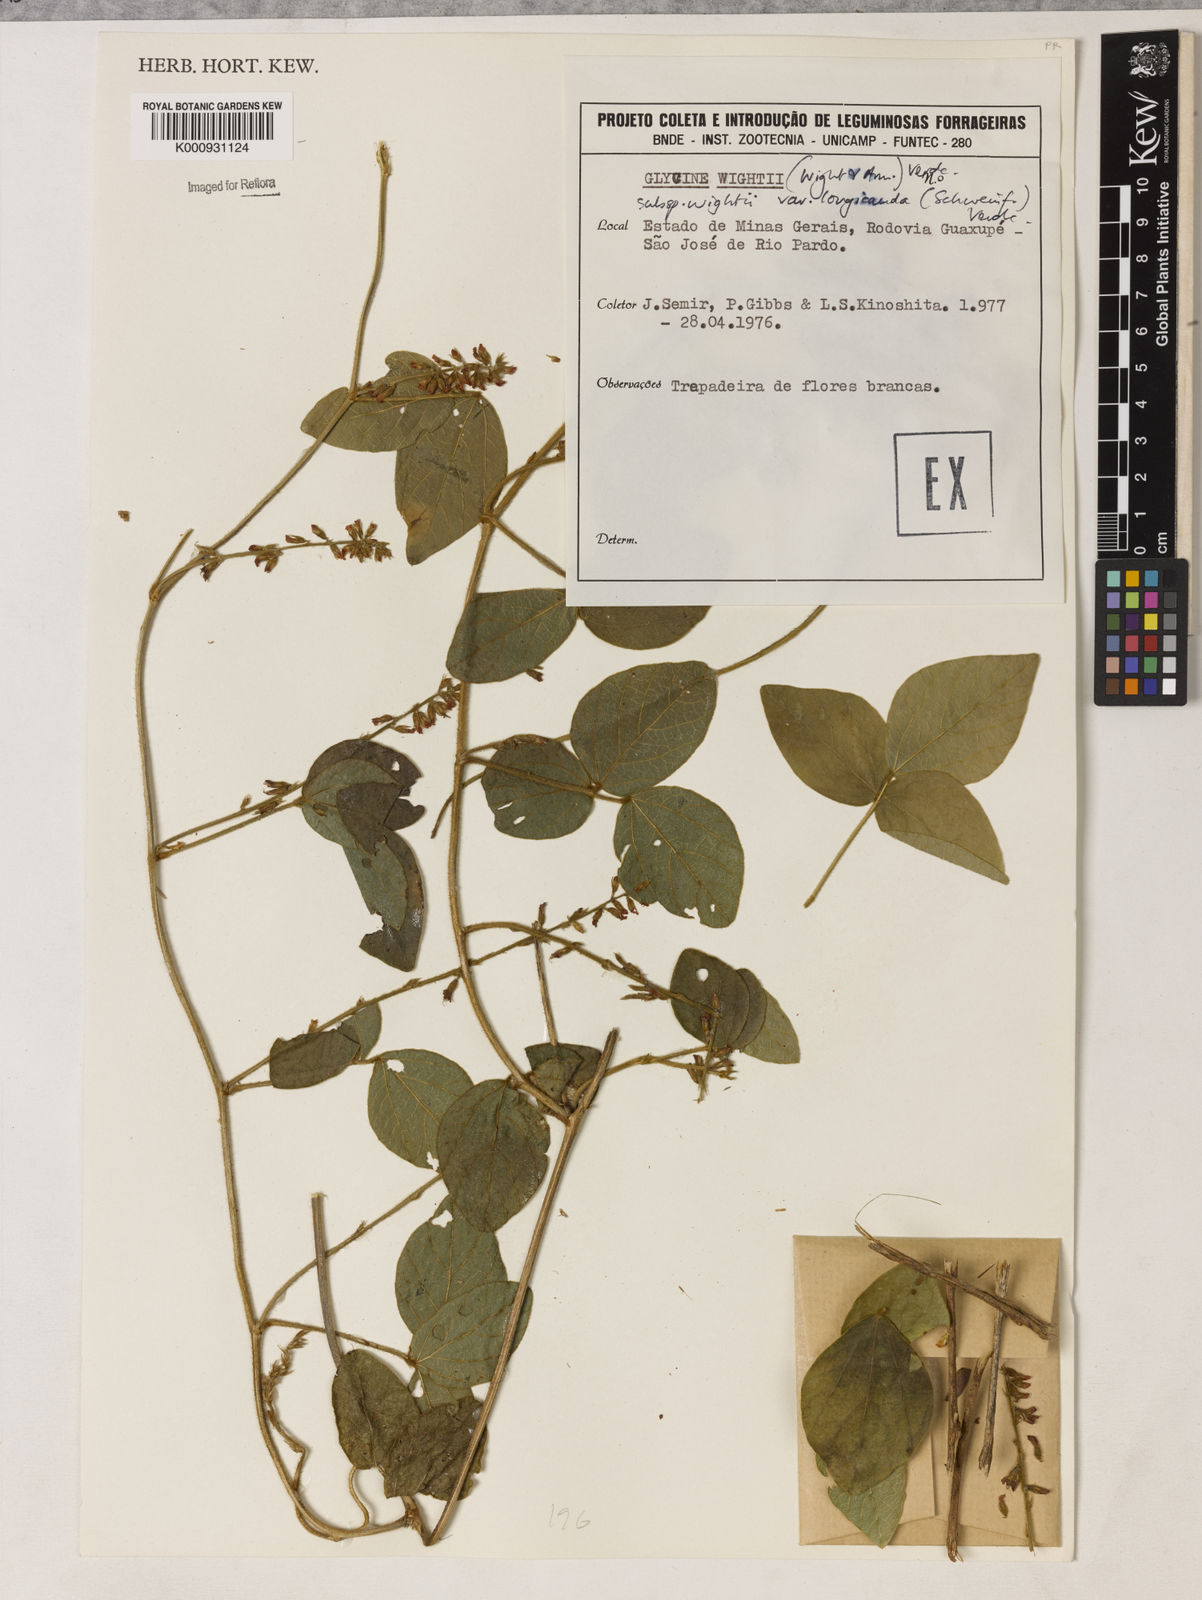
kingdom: Plantae
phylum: Tracheophyta
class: Magnoliopsida
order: Fabales
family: Fabaceae
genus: Neonotonia
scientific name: Neonotonia wightii
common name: Perennial soybean
